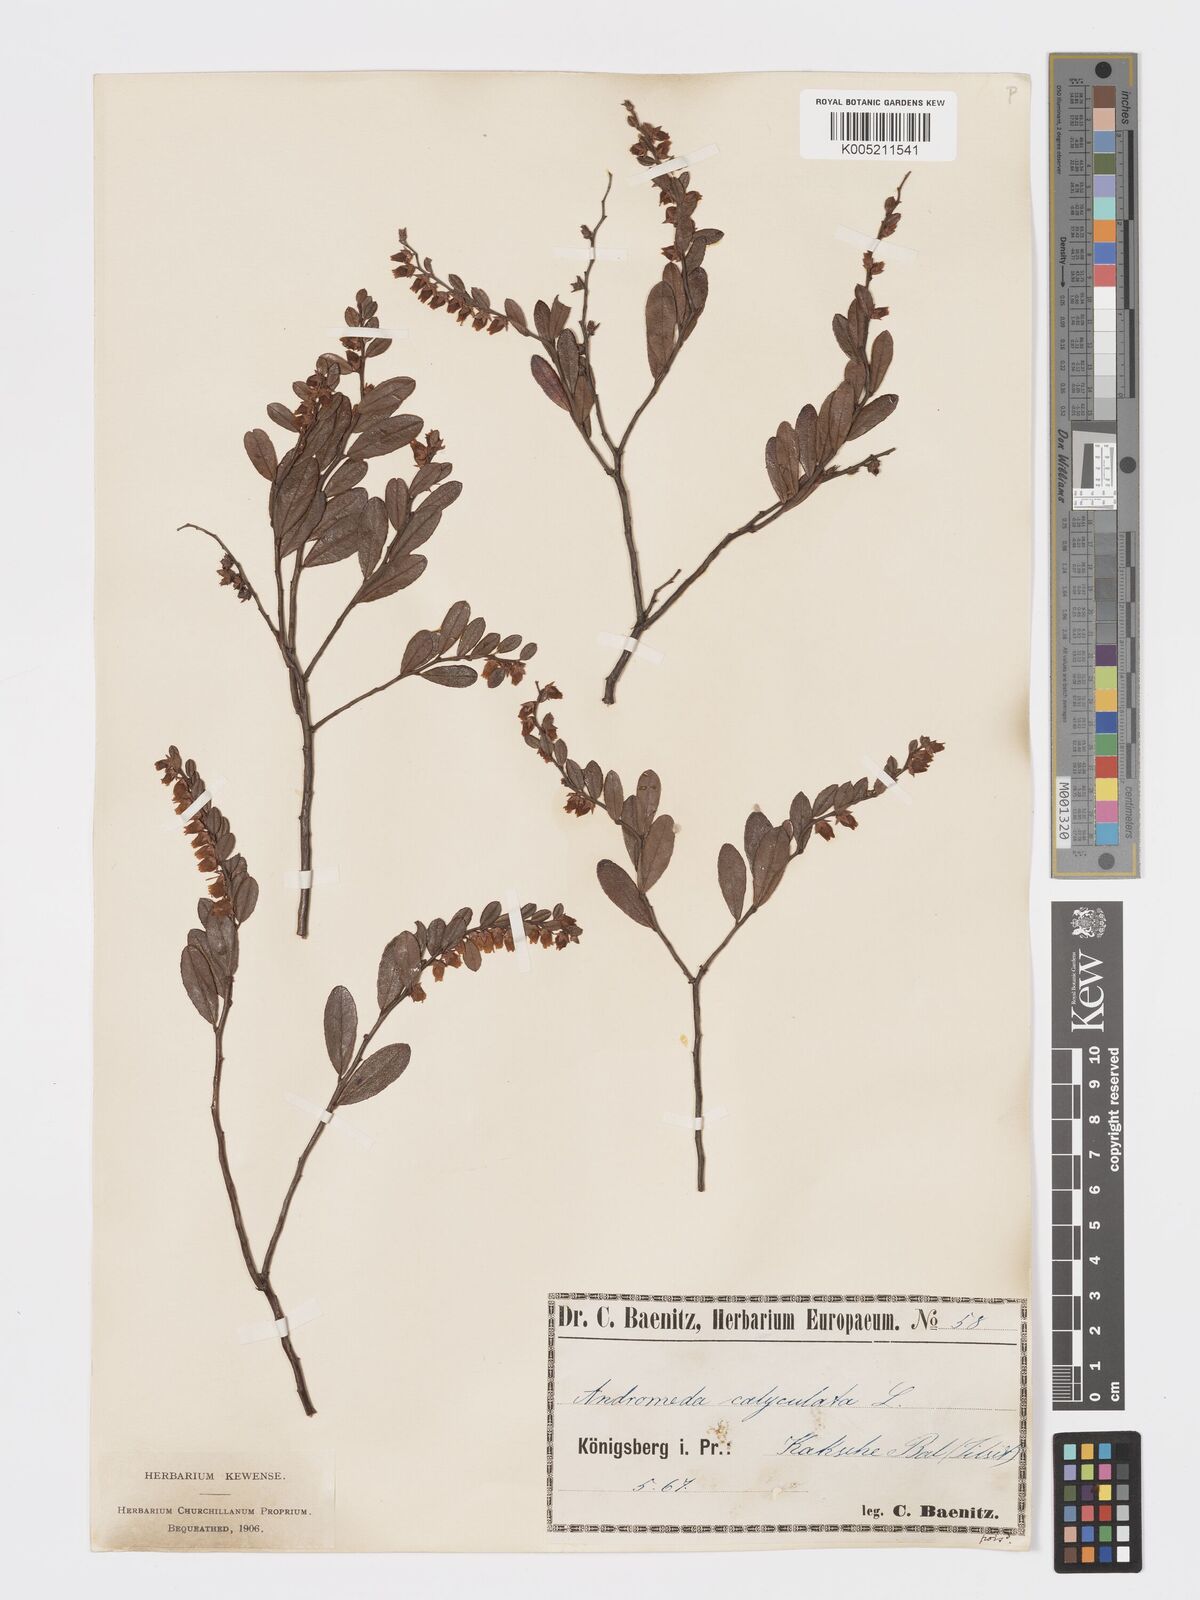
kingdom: Plantae
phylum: Tracheophyta
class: Magnoliopsida
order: Ericales
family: Ericaceae
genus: Chamaedaphne
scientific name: Chamaedaphne calyculata
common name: Leatherleaf
